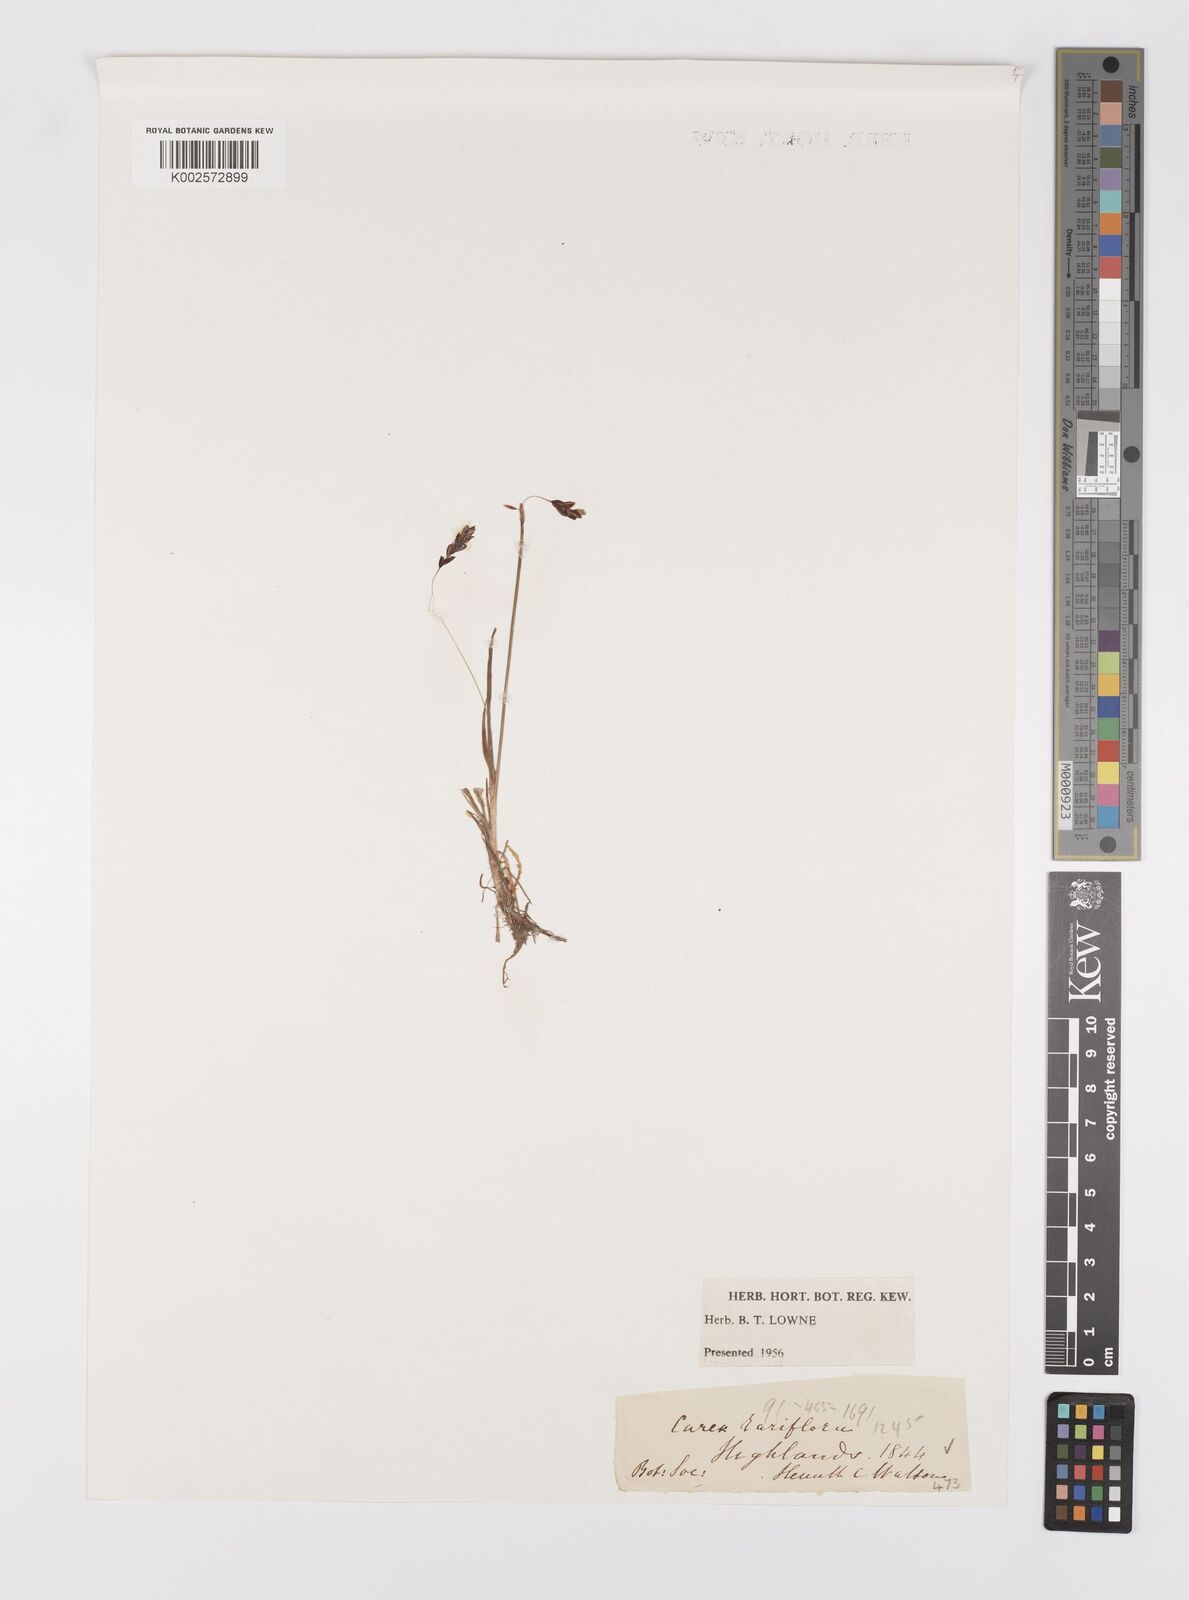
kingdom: Plantae
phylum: Tracheophyta
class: Liliopsida
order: Poales
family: Cyperaceae
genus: Carex
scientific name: Carex rariflora
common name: Loose-flowered alpine sedge
